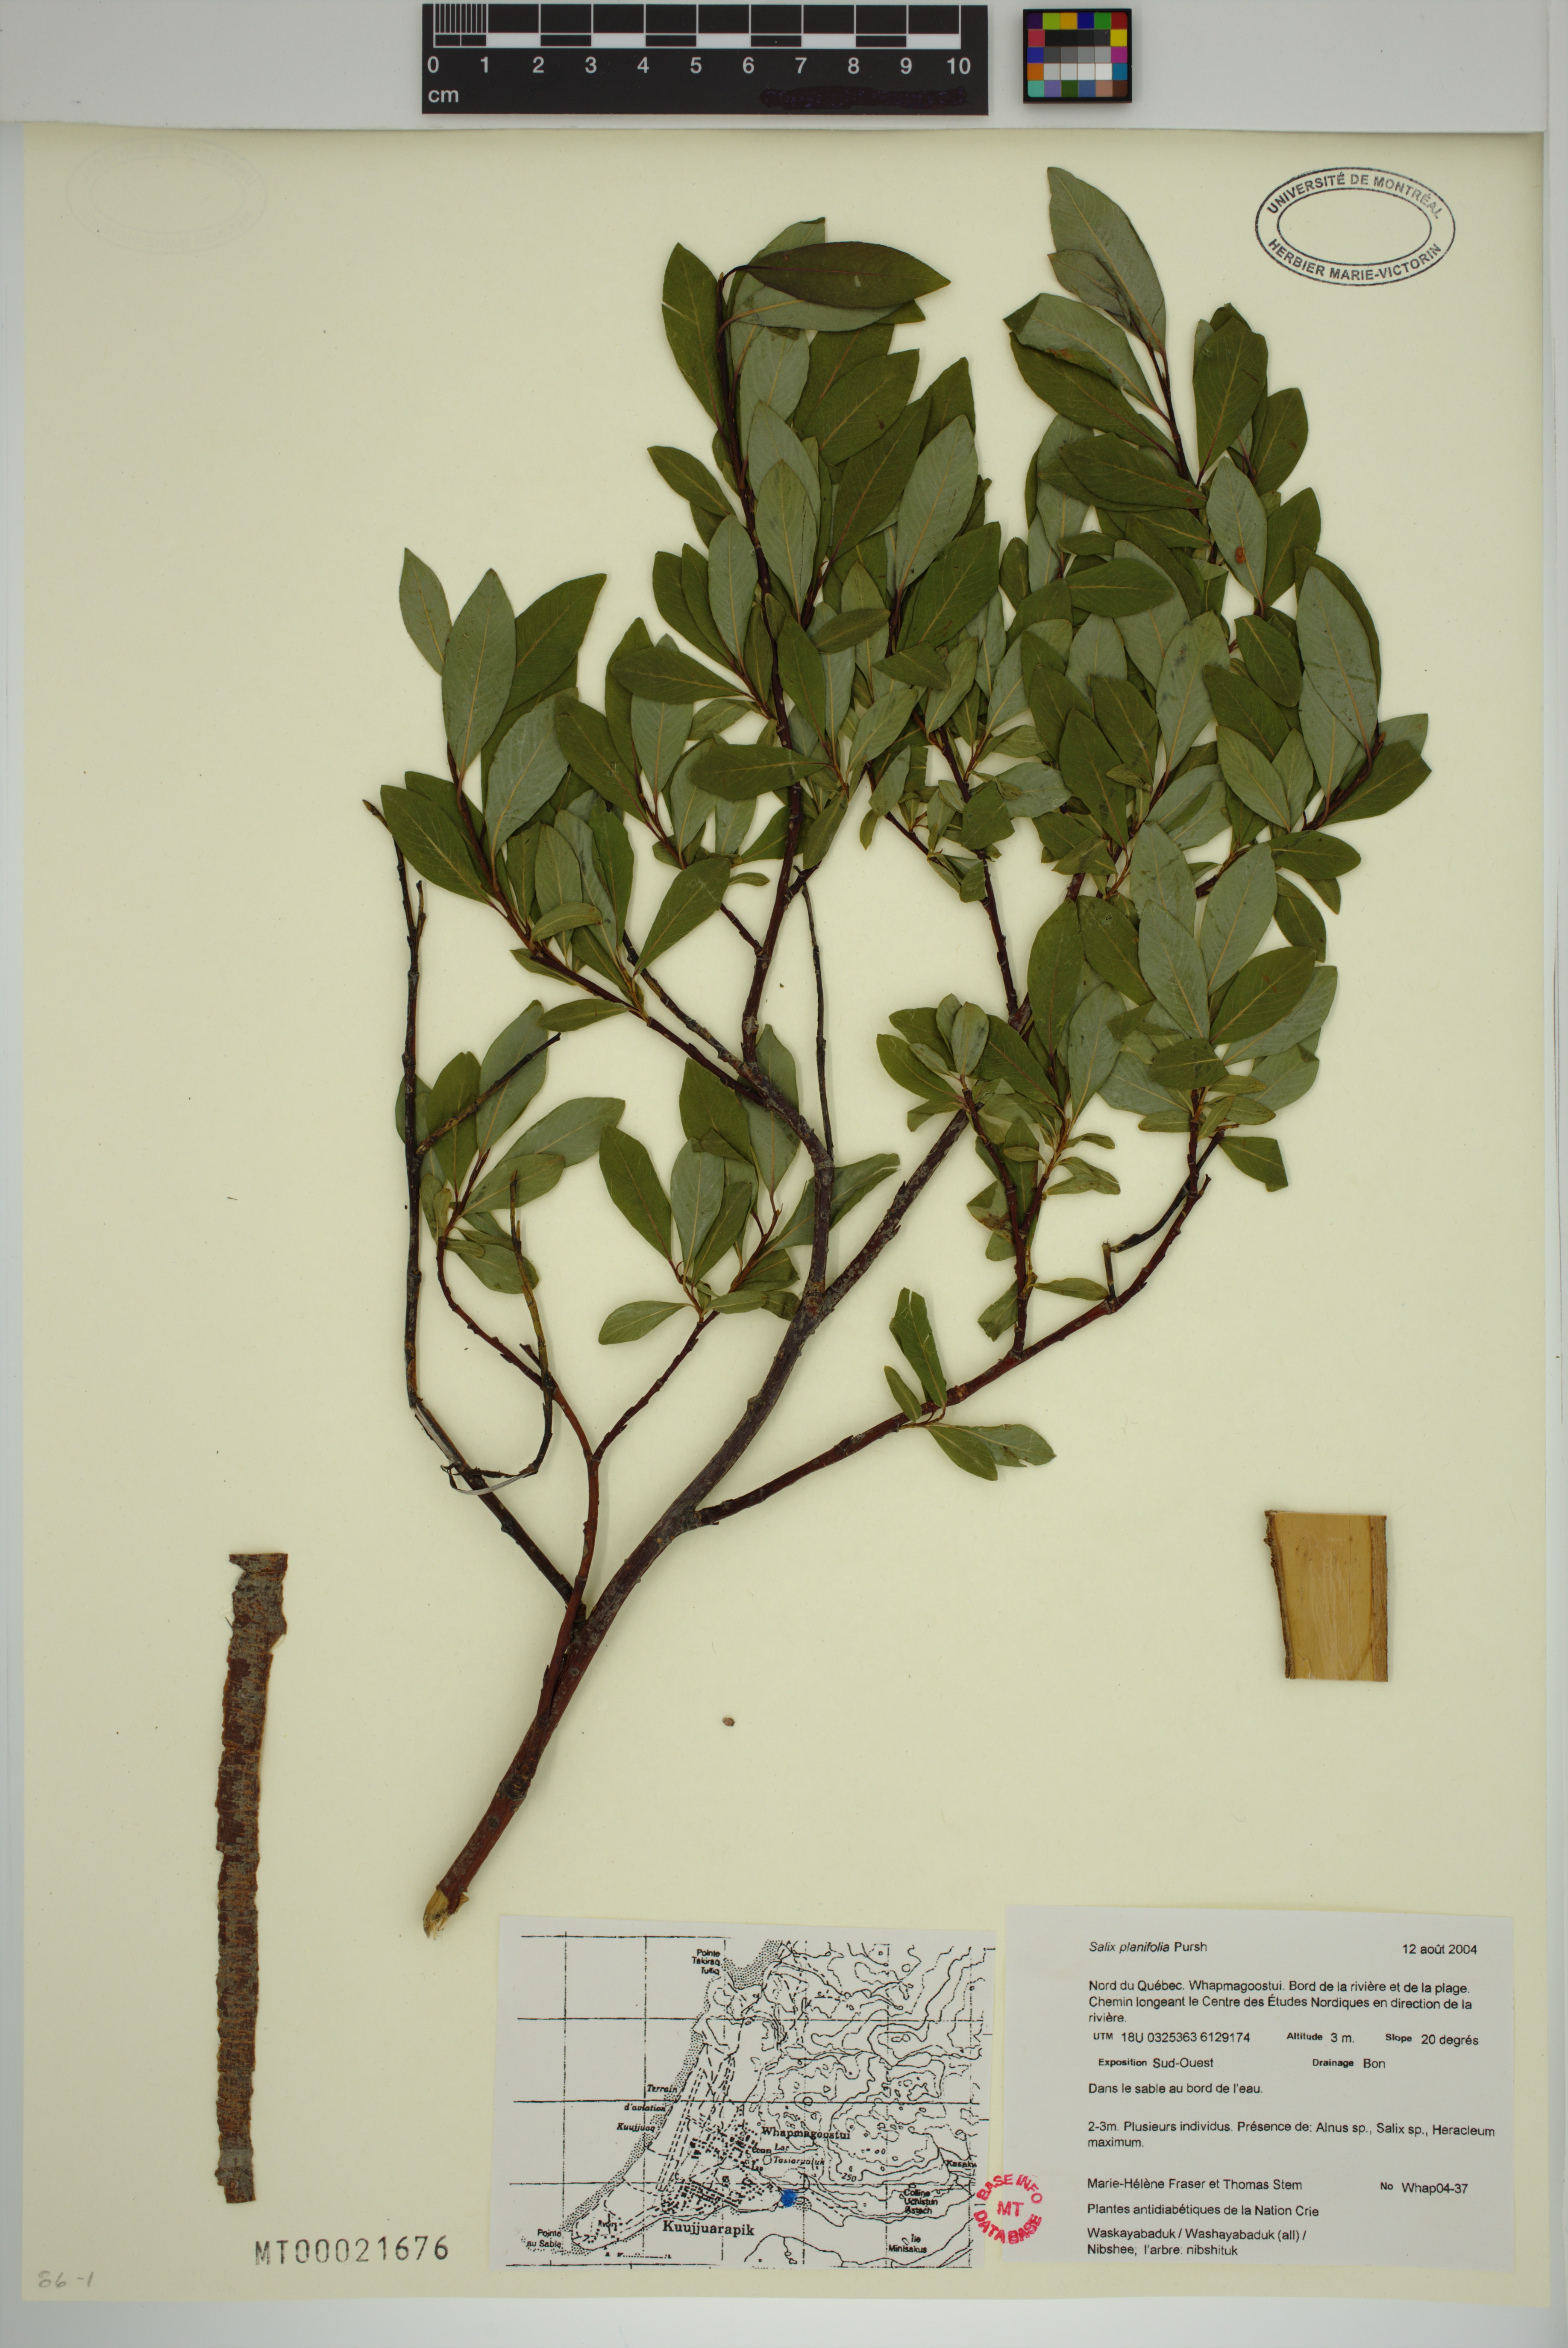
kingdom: Plantae
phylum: Tracheophyta
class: Magnoliopsida
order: Malpighiales
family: Salicaceae
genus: Salix
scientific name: Salix planifolia
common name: Mountain willow
